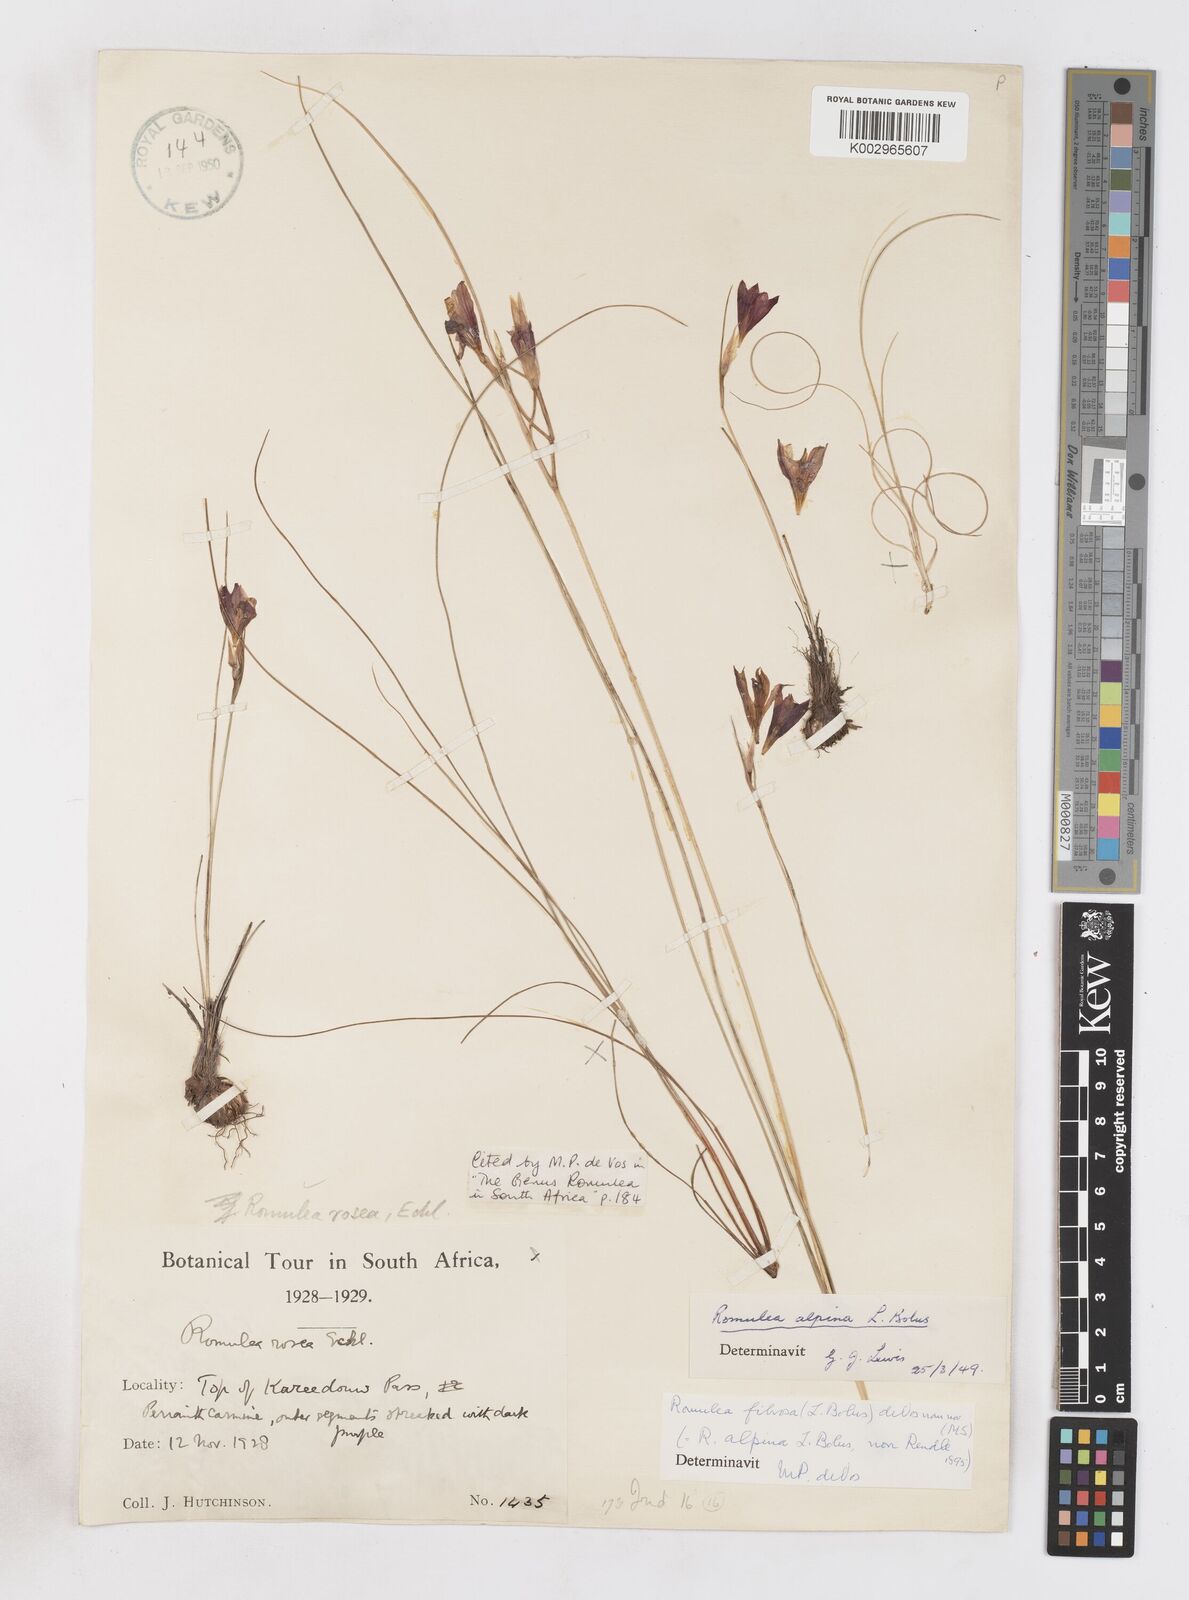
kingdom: Plantae
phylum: Tracheophyta
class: Liliopsida
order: Asparagales
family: Iridaceae
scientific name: Iridaceae
